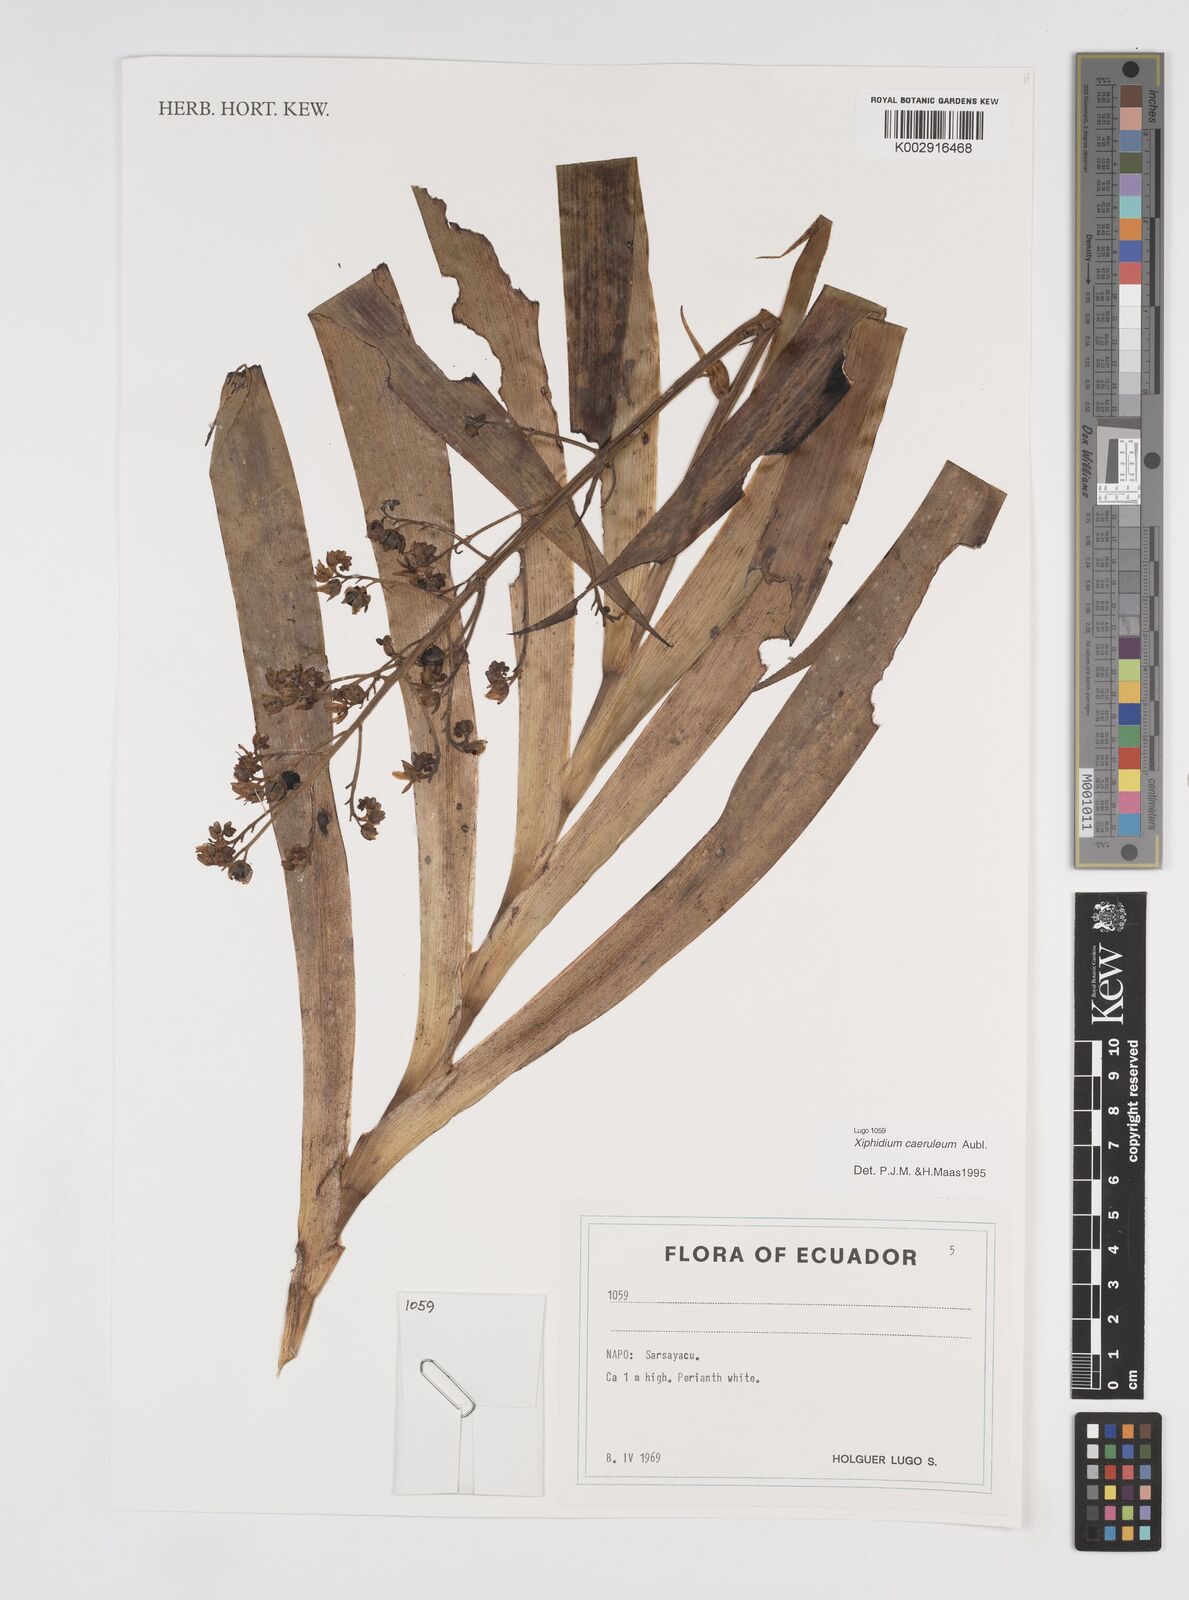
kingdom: Plantae
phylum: Tracheophyta
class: Liliopsida
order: Commelinales
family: Haemodoraceae
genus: Xiphidium
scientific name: Xiphidium caeruleum
